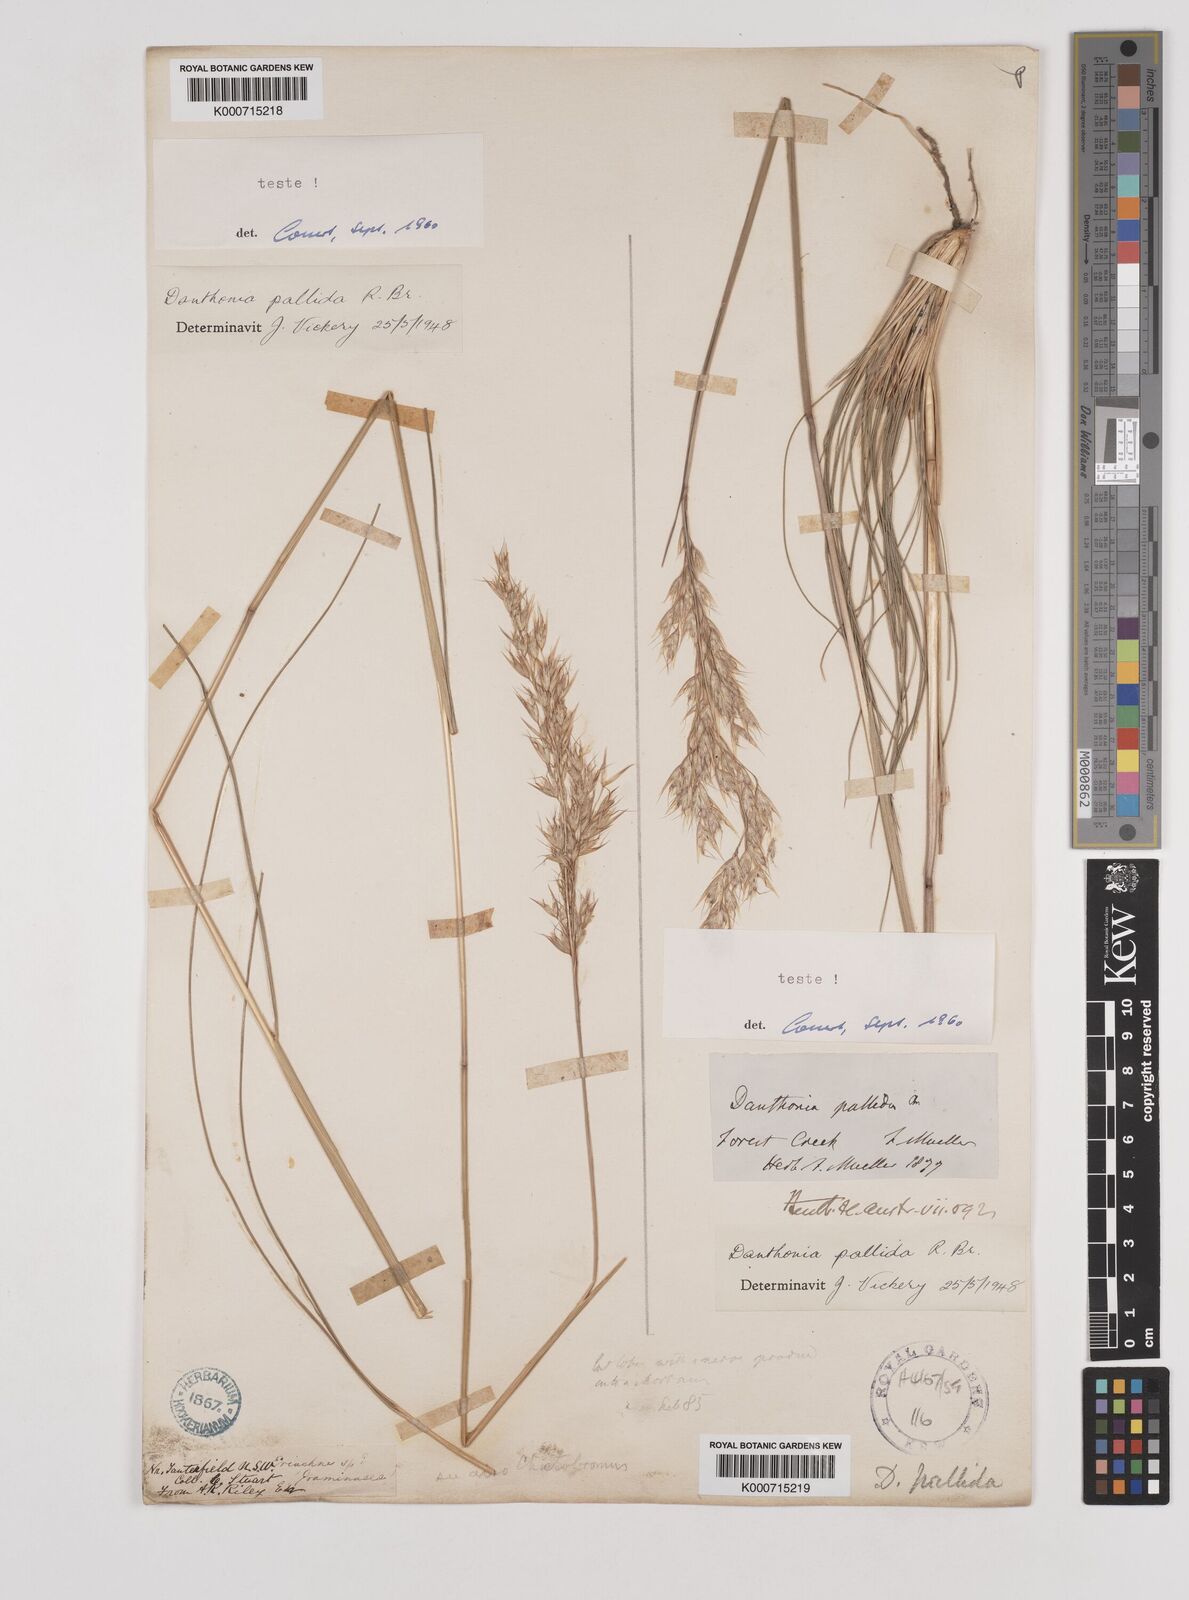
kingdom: Plantae
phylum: Tracheophyta
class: Liliopsida
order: Poales
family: Poaceae
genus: Rytidosperma
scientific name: Rytidosperma
